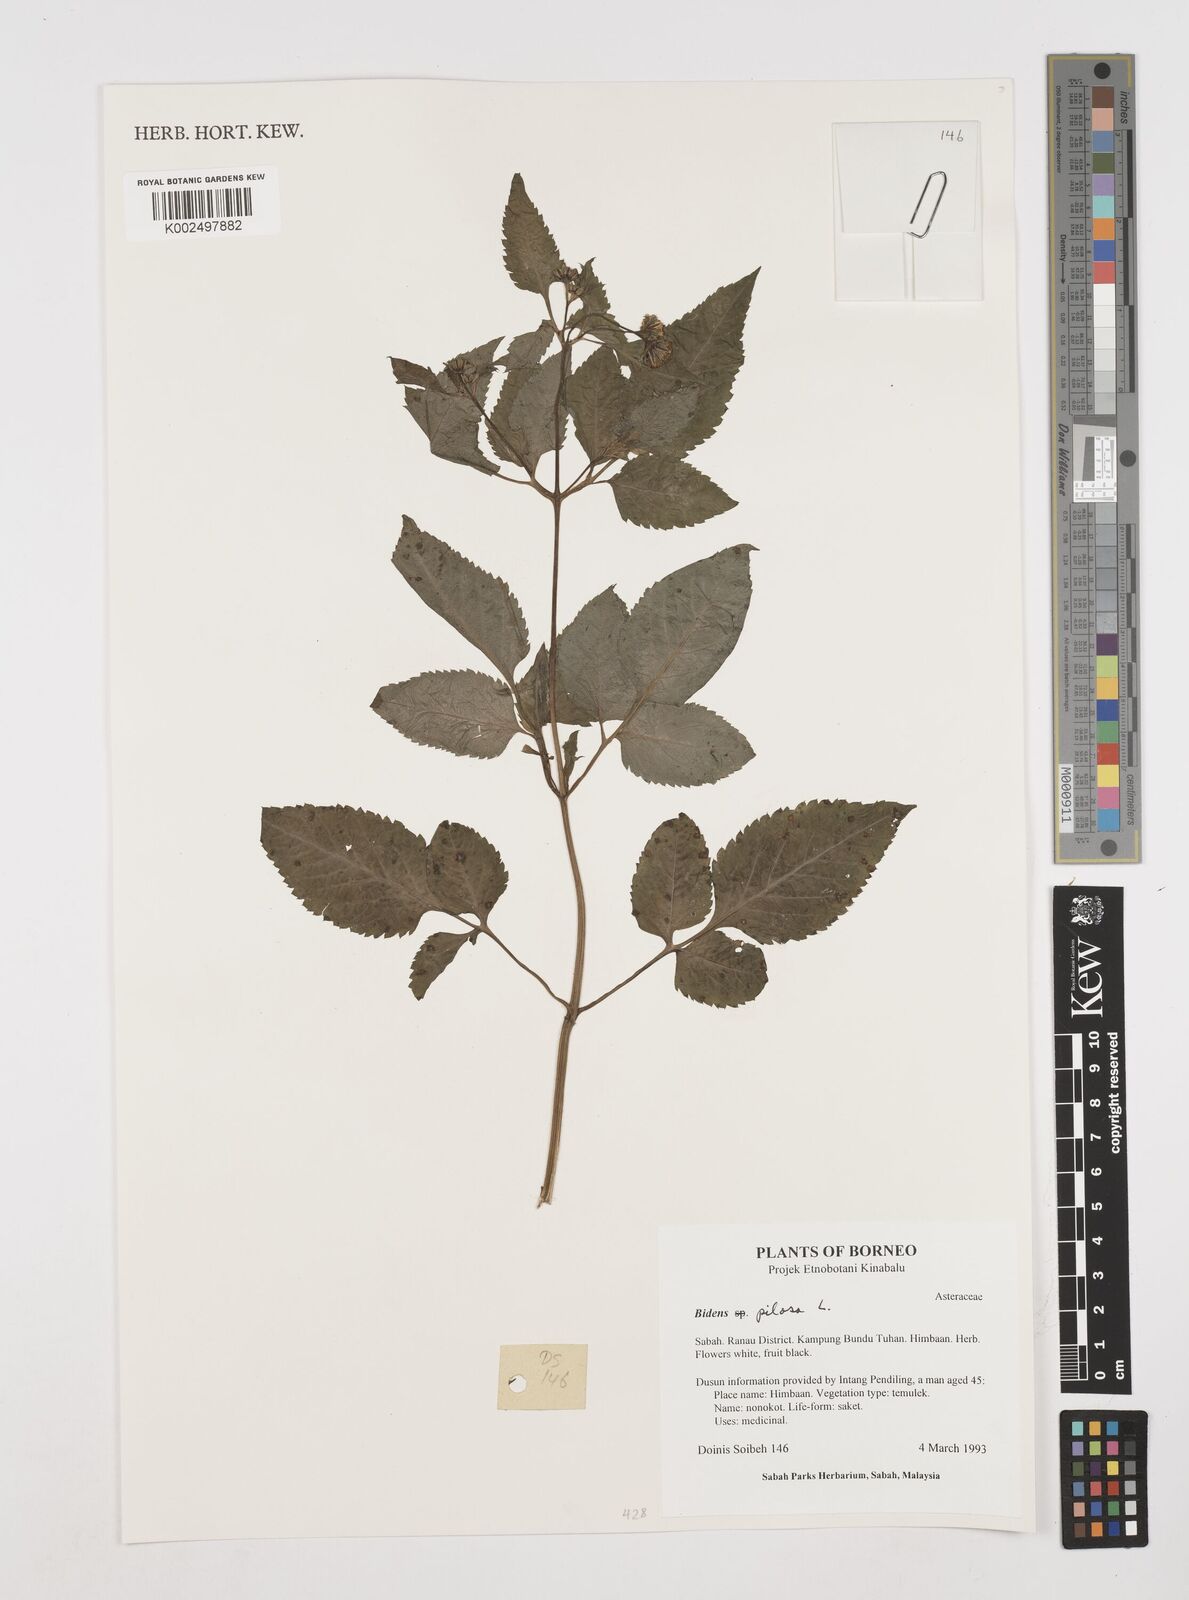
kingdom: Plantae
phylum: Tracheophyta
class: Magnoliopsida
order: Asterales
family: Asteraceae
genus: Bidens
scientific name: Bidens pilosa
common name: Black-jack
